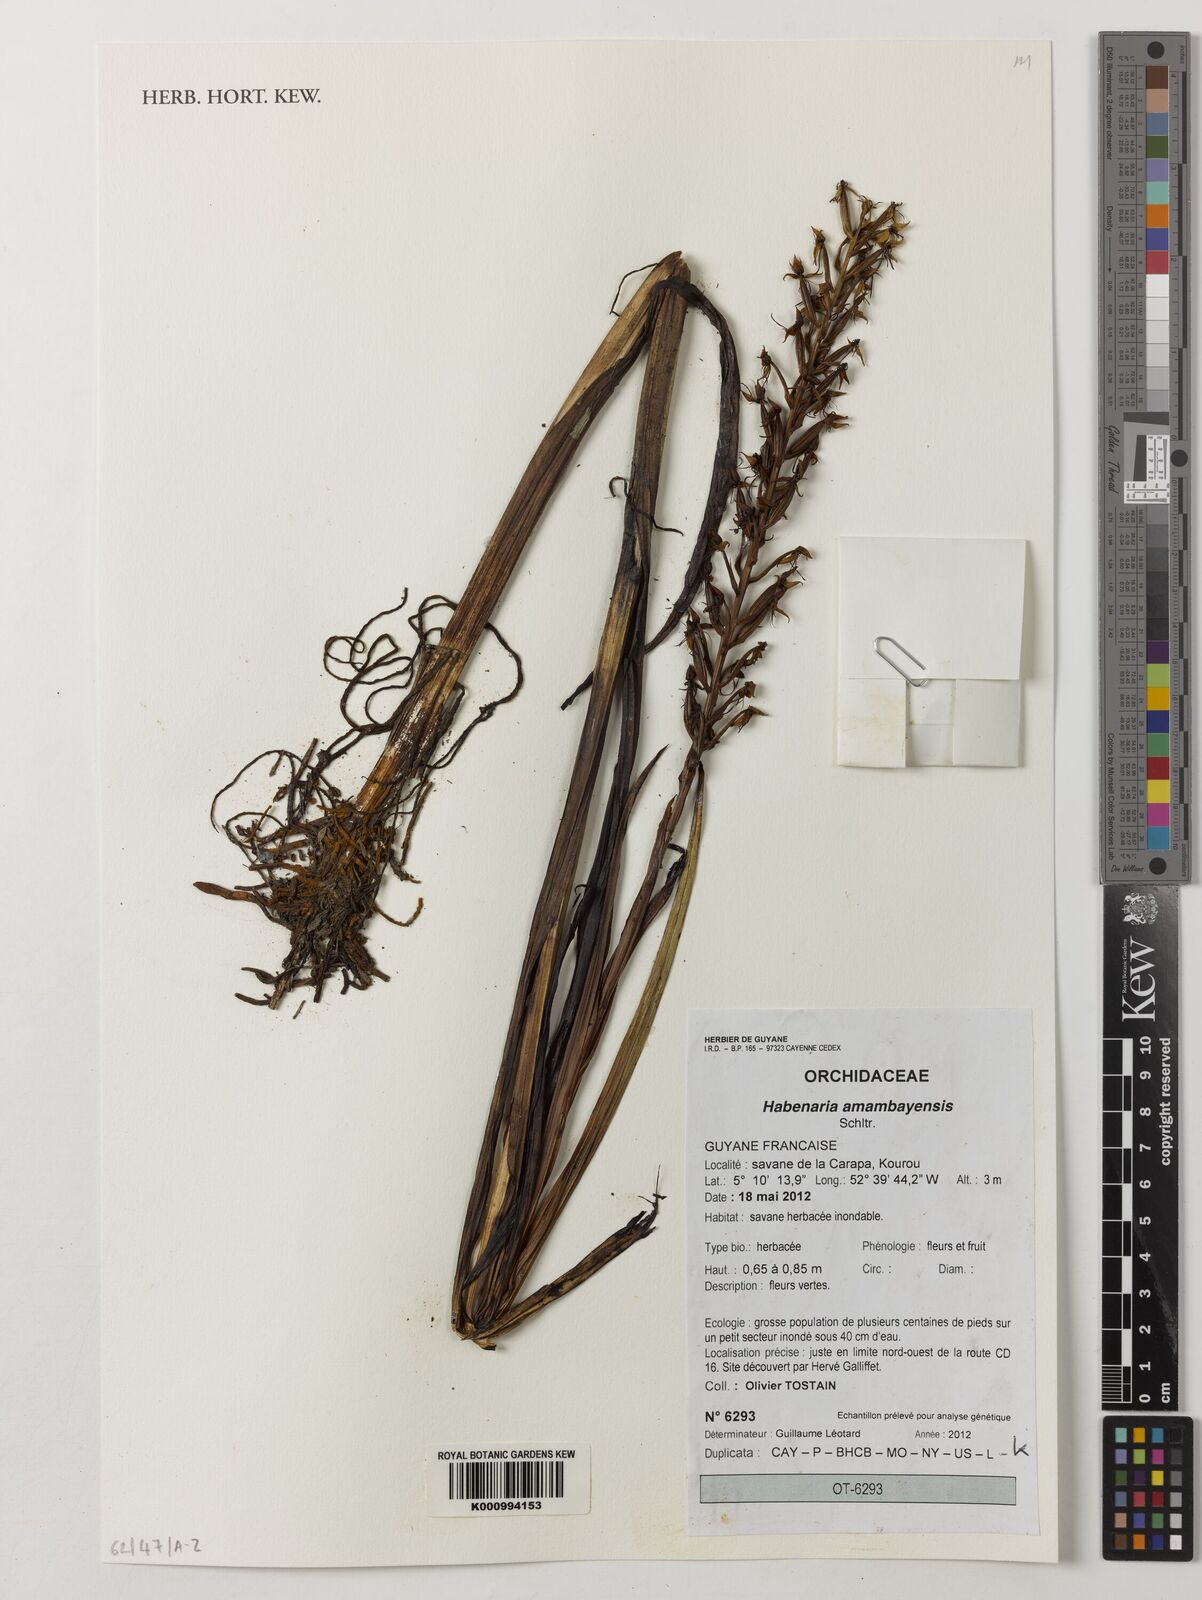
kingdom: Plantae
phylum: Tracheophyta
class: Liliopsida
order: Asparagales
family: Orchidaceae
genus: Habenaria
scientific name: Habenaria amambayensis
